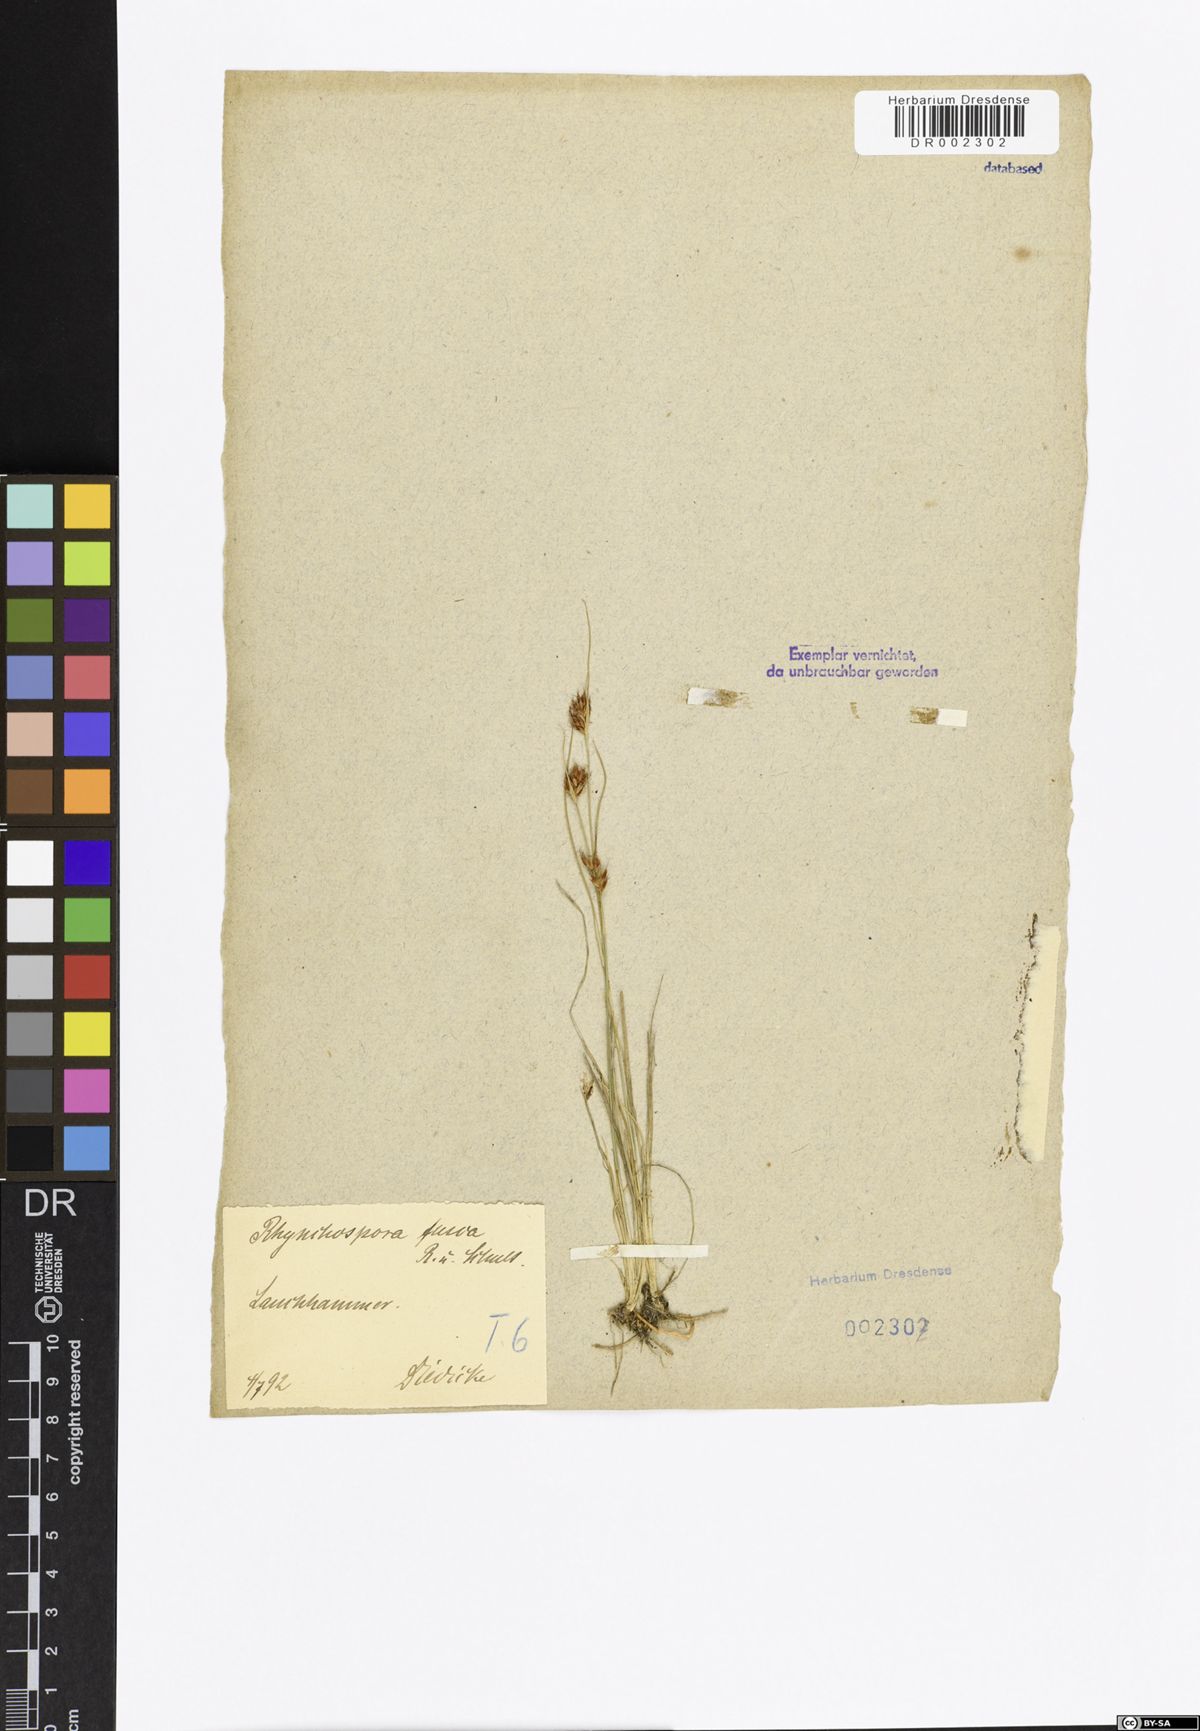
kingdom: Plantae
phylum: Tracheophyta
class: Liliopsida
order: Poales
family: Cyperaceae
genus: Rhynchospora
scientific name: Rhynchospora fusca
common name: Brown beak-sedge
